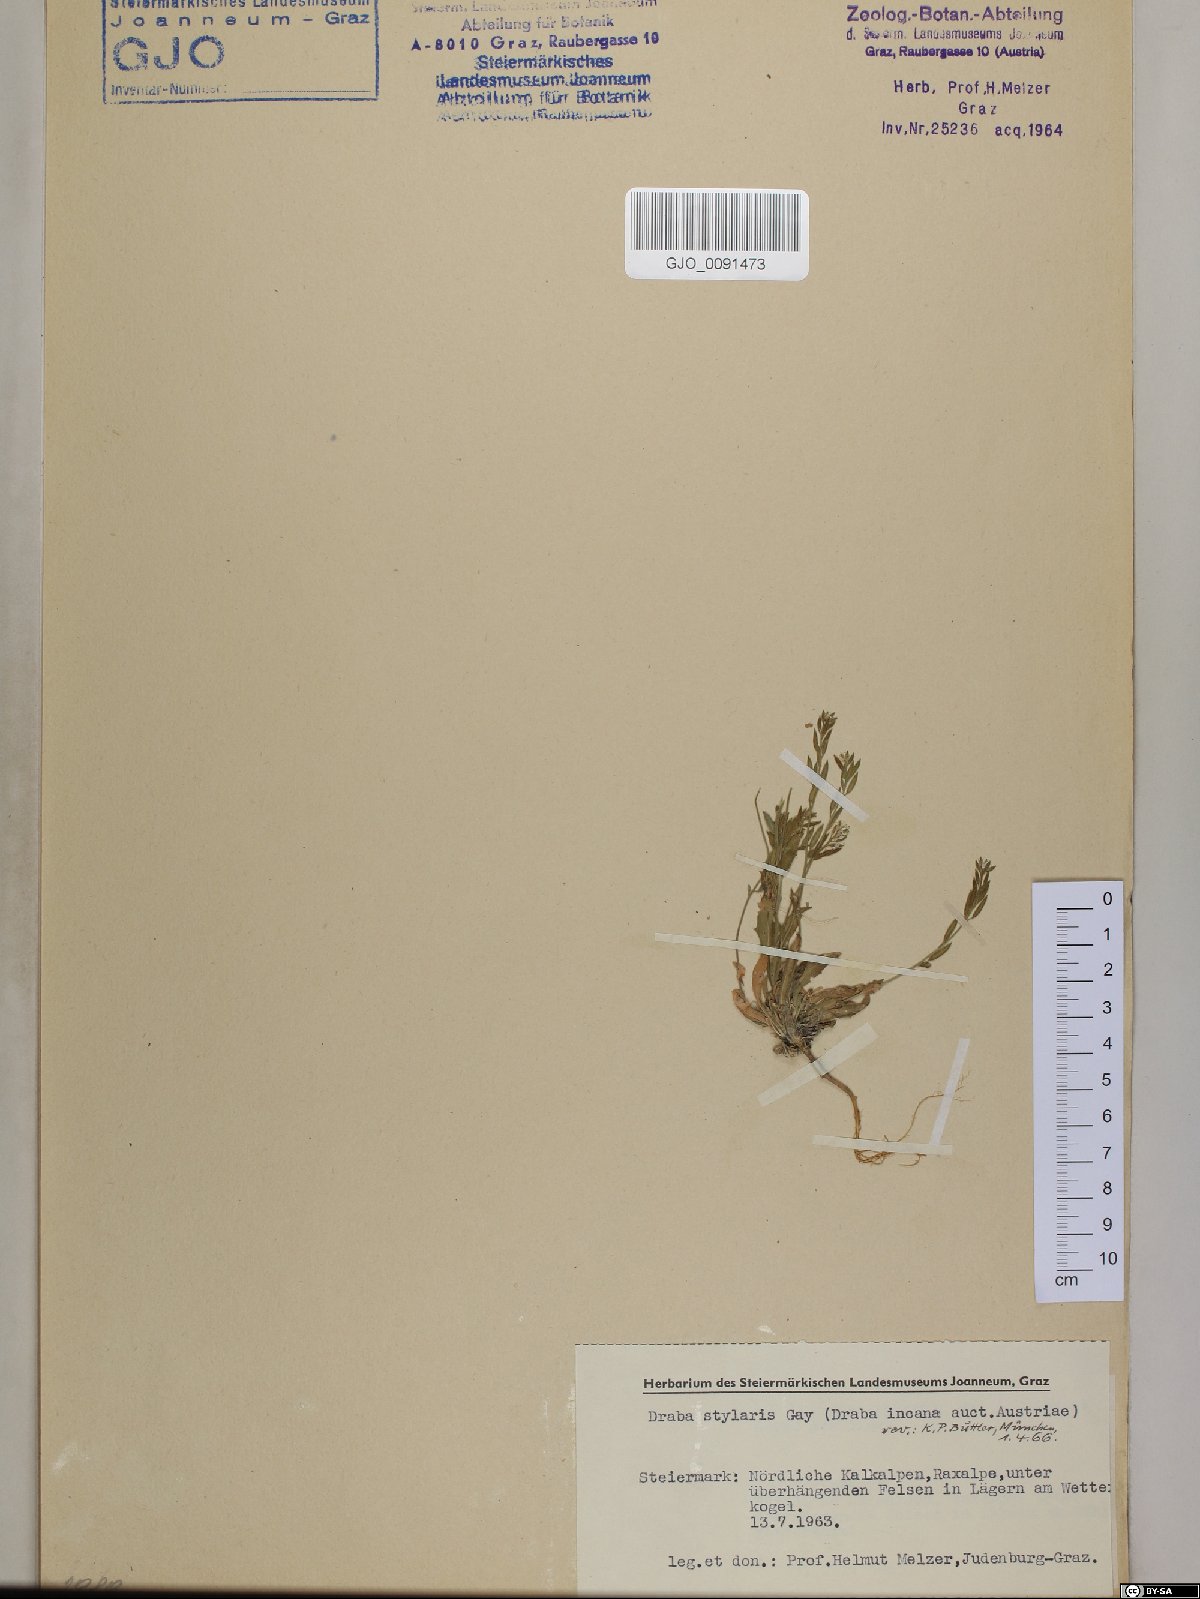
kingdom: Plantae
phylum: Tracheophyta
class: Magnoliopsida
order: Brassicales
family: Brassicaceae
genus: Draba
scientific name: Draba thomasii
